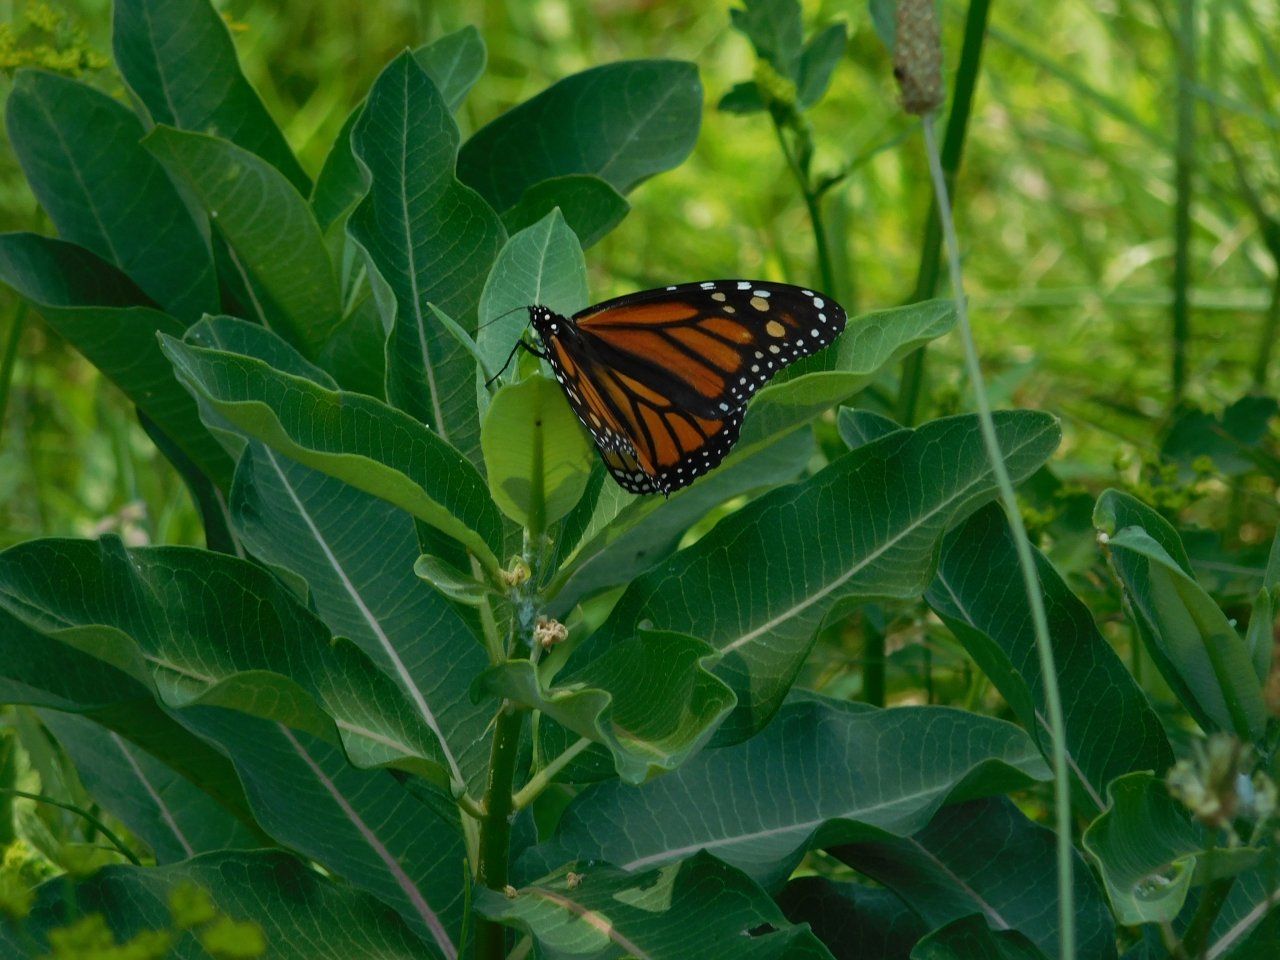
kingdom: Animalia
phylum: Arthropoda
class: Insecta
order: Lepidoptera
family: Nymphalidae
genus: Danaus
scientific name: Danaus plexippus
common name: Monarch
